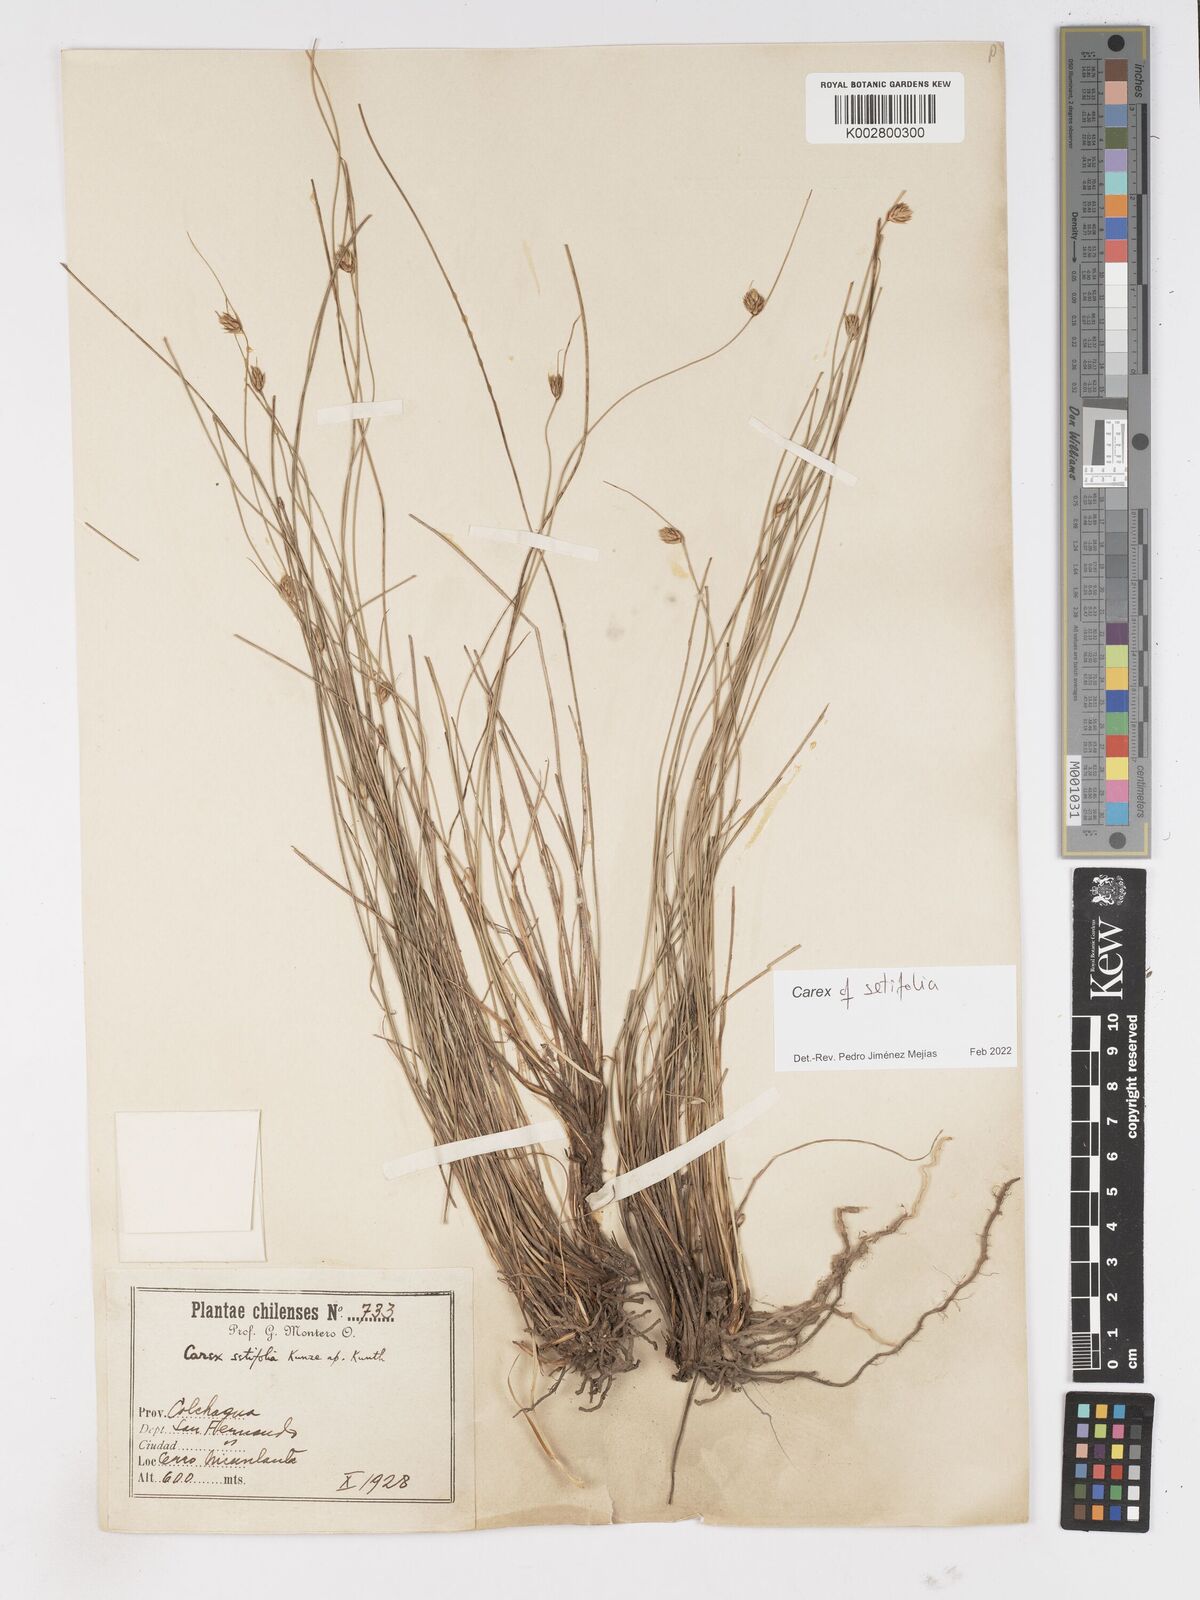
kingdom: Plantae
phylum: Tracheophyta
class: Liliopsida
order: Poales
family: Cyperaceae
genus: Carex
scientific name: Carex setifolia
